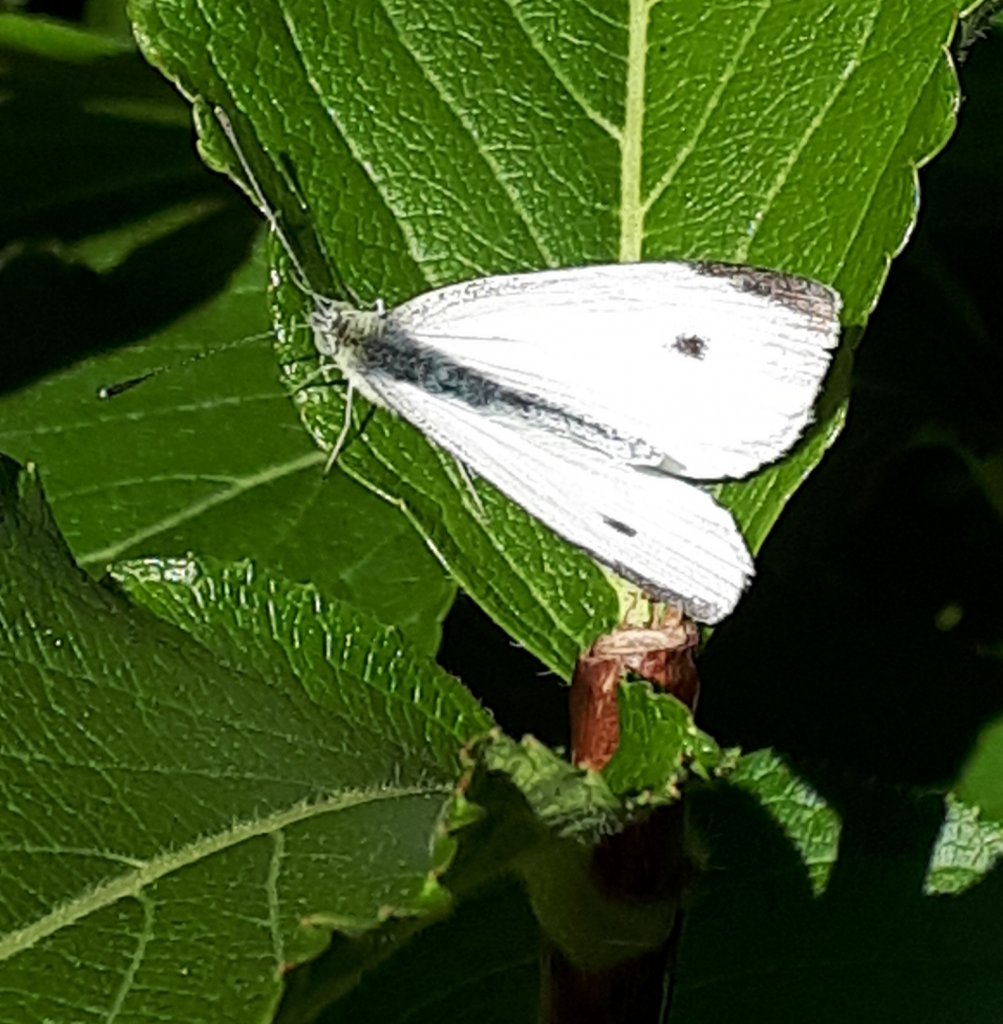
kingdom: Animalia
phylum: Arthropoda
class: Insecta
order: Lepidoptera
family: Pieridae
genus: Pieris
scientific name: Pieris rapae
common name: Cabbage White
